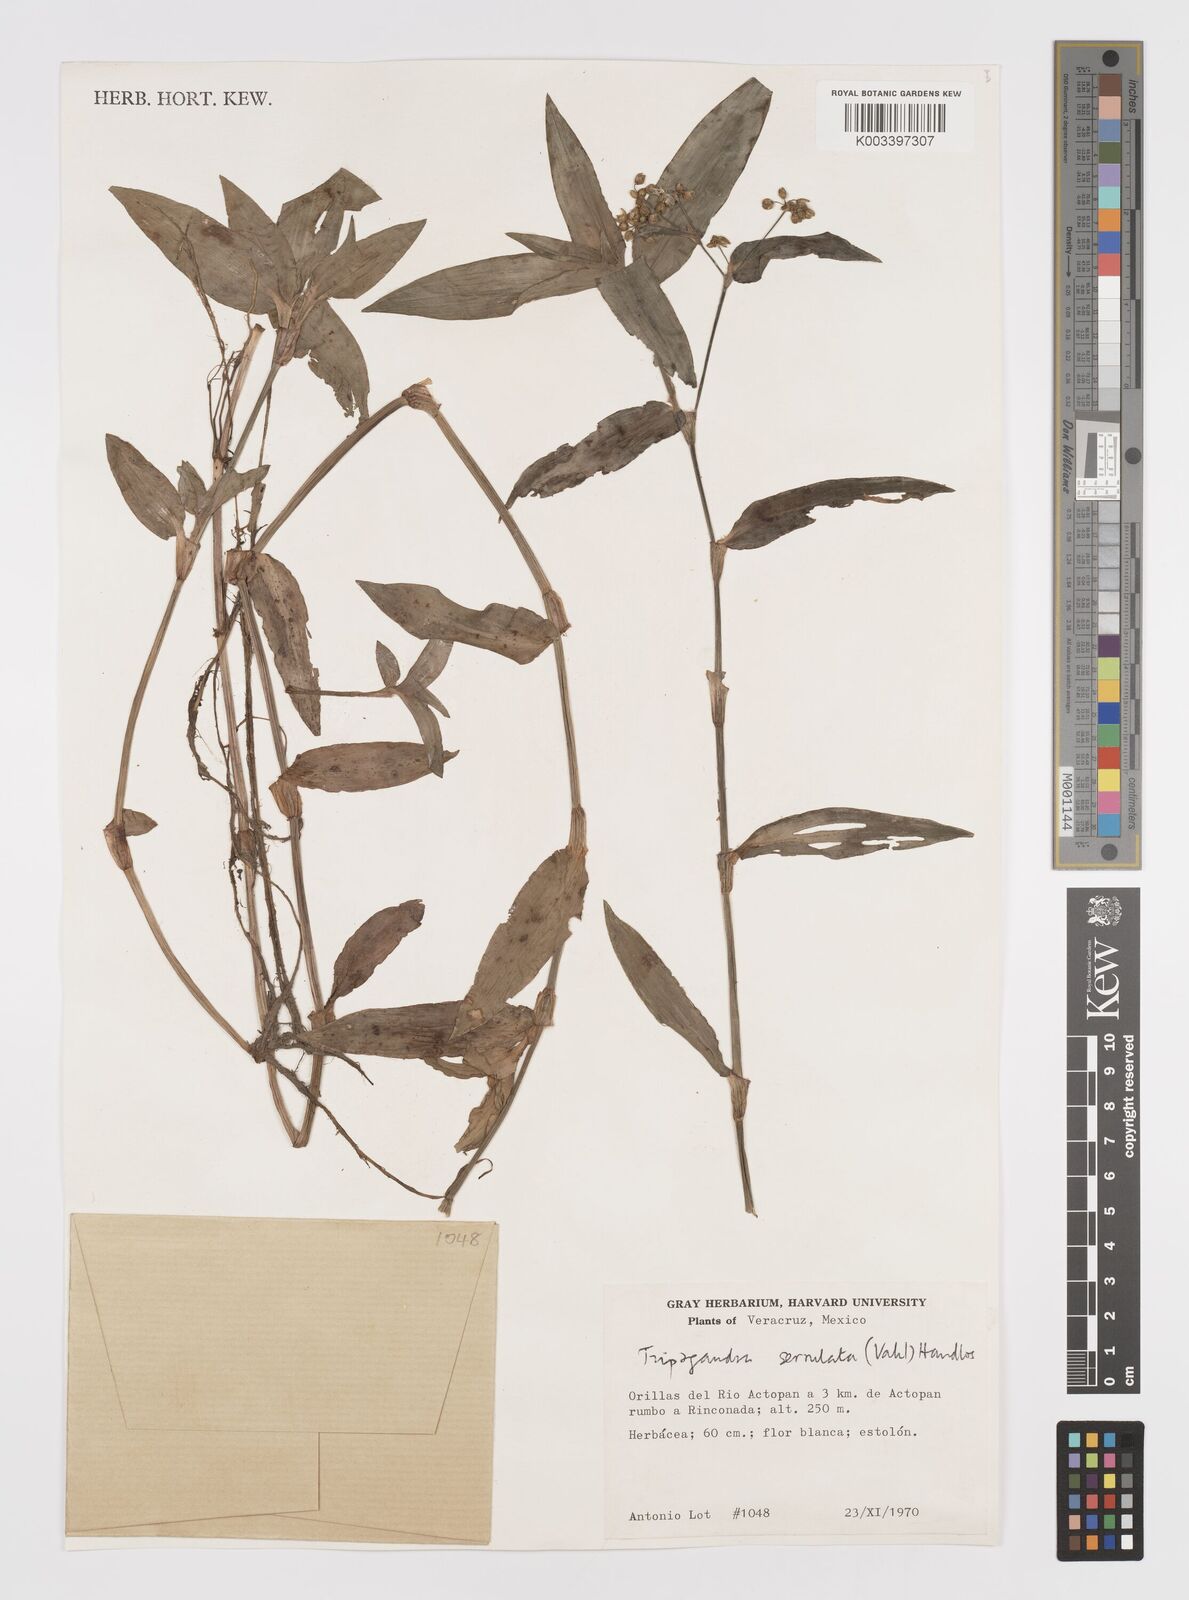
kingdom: Plantae
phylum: Tracheophyta
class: Liliopsida
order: Commelinales
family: Commelinaceae
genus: Callisia
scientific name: Callisia serrulata
